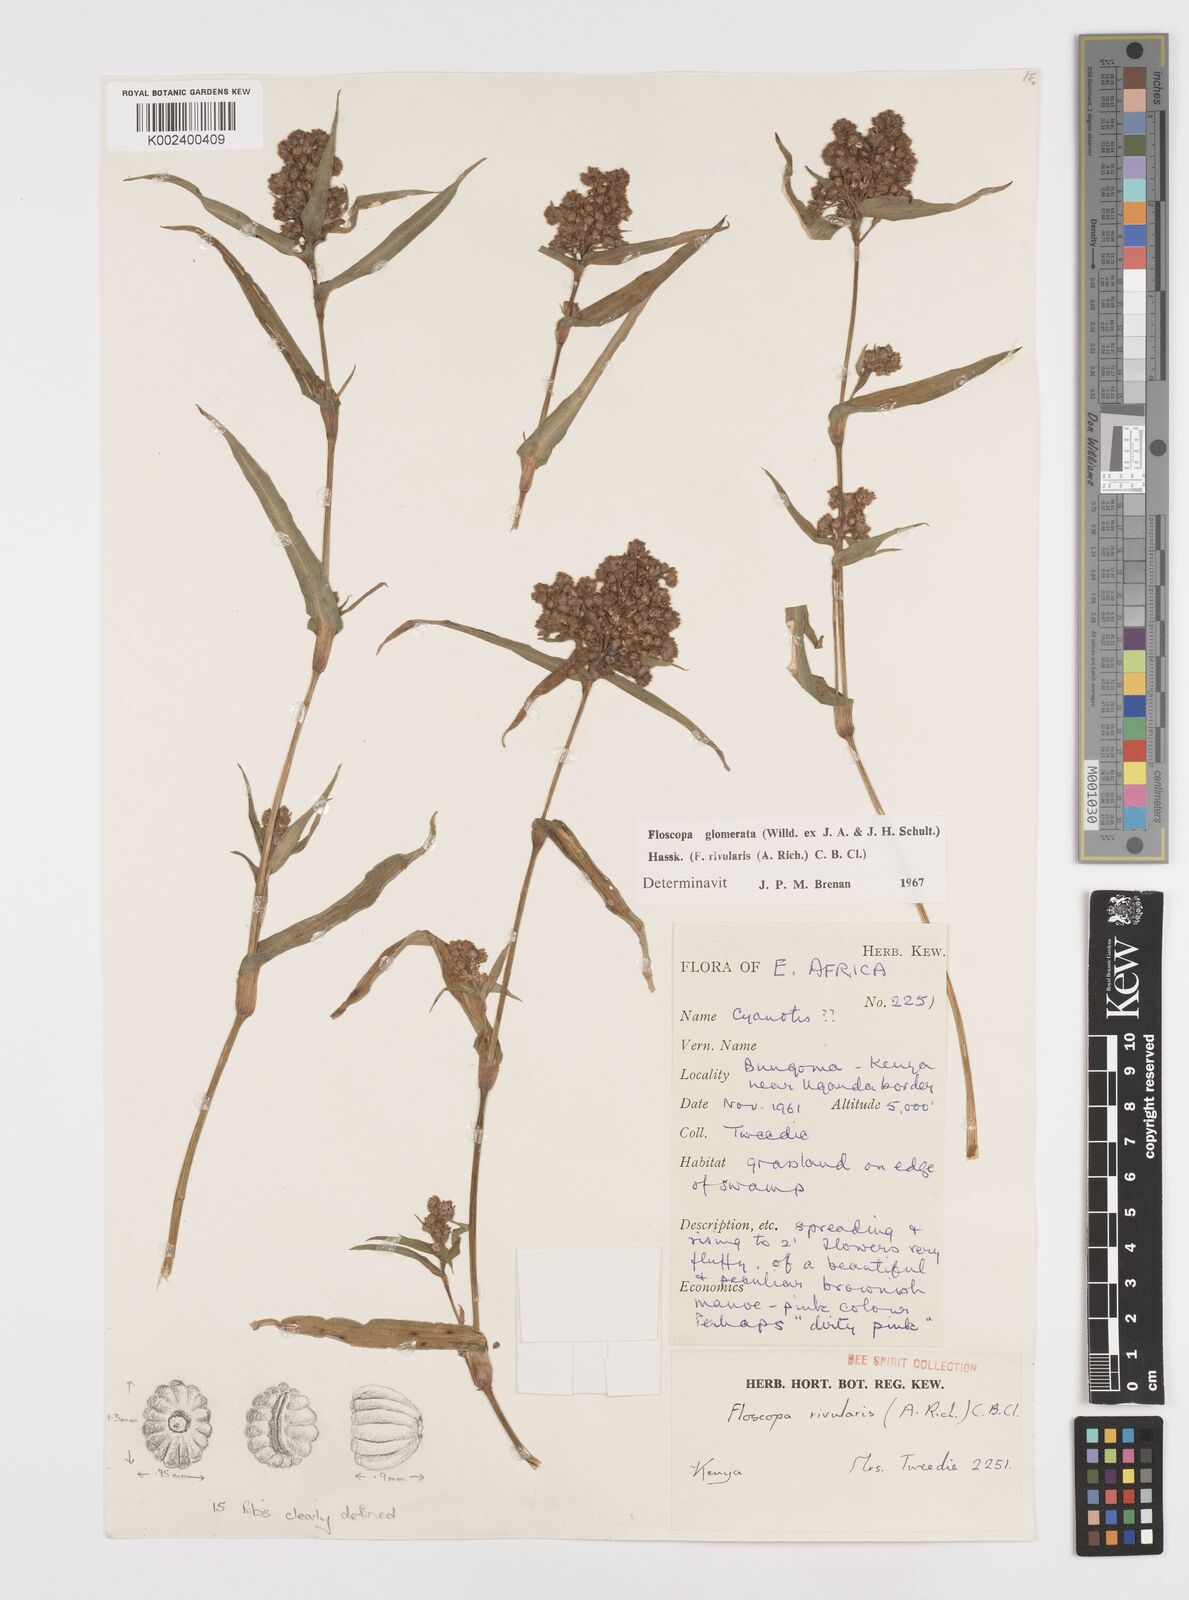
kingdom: Plantae
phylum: Tracheophyta
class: Liliopsida
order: Commelinales
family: Commelinaceae
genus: Floscopa
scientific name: Floscopa glomerata
